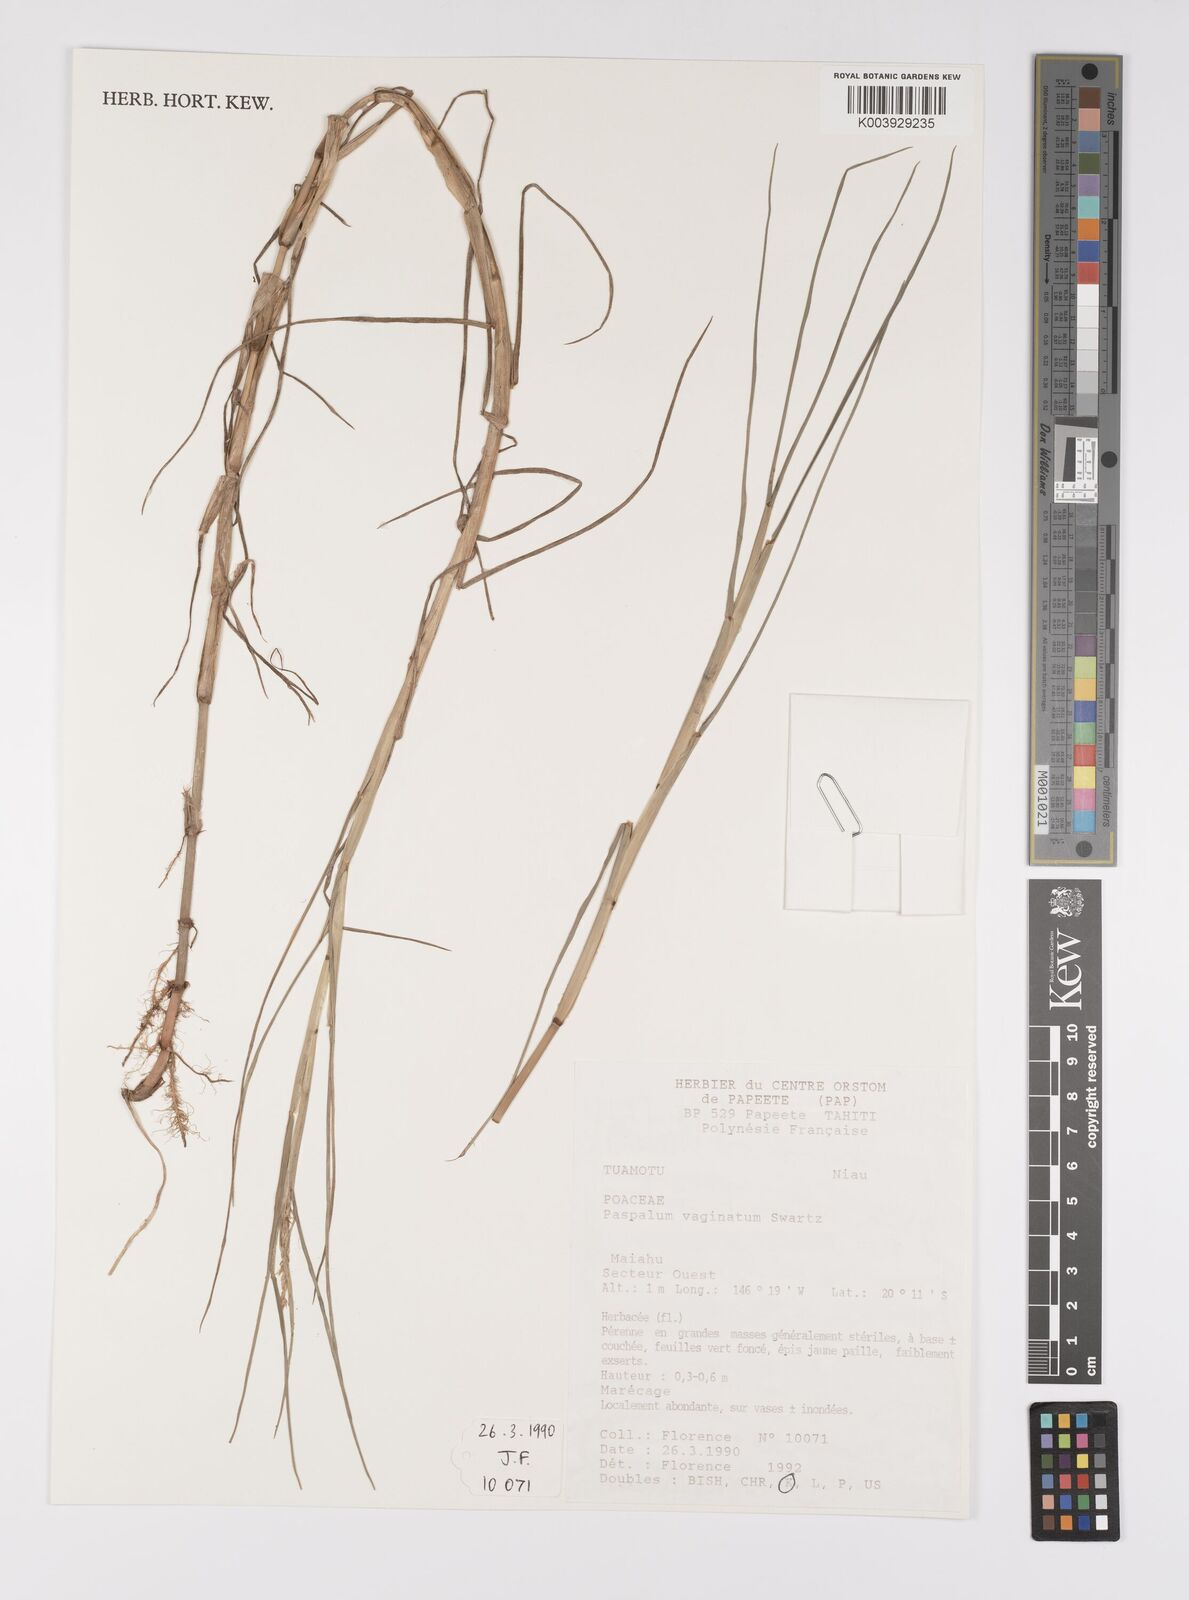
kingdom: Plantae
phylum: Tracheophyta
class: Liliopsida
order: Poales
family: Poaceae
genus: Paspalum
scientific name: Paspalum vaginatum
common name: Seashore paspalum
